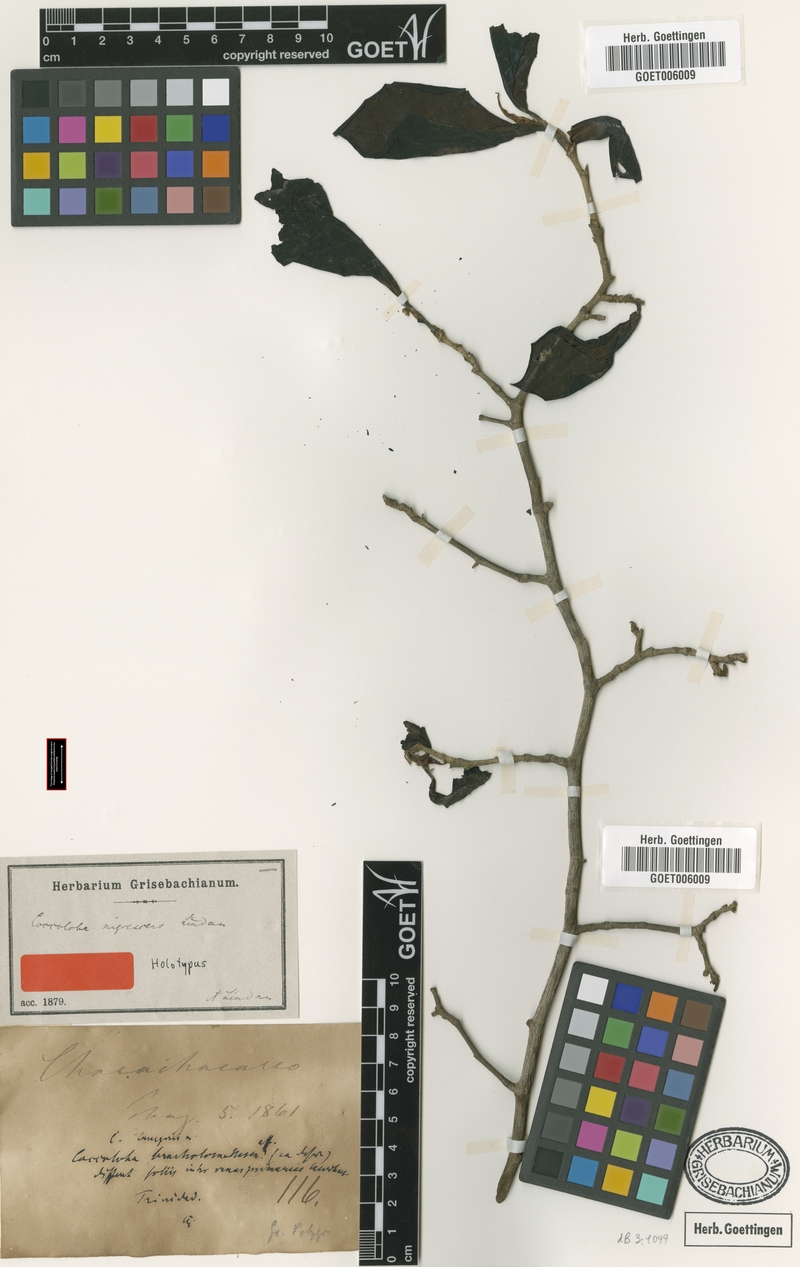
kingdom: Plantae
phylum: Tracheophyta
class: Magnoliopsida
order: Caryophyllales
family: Polygonaceae
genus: Coccoloba
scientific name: Coccoloba nigrescens
